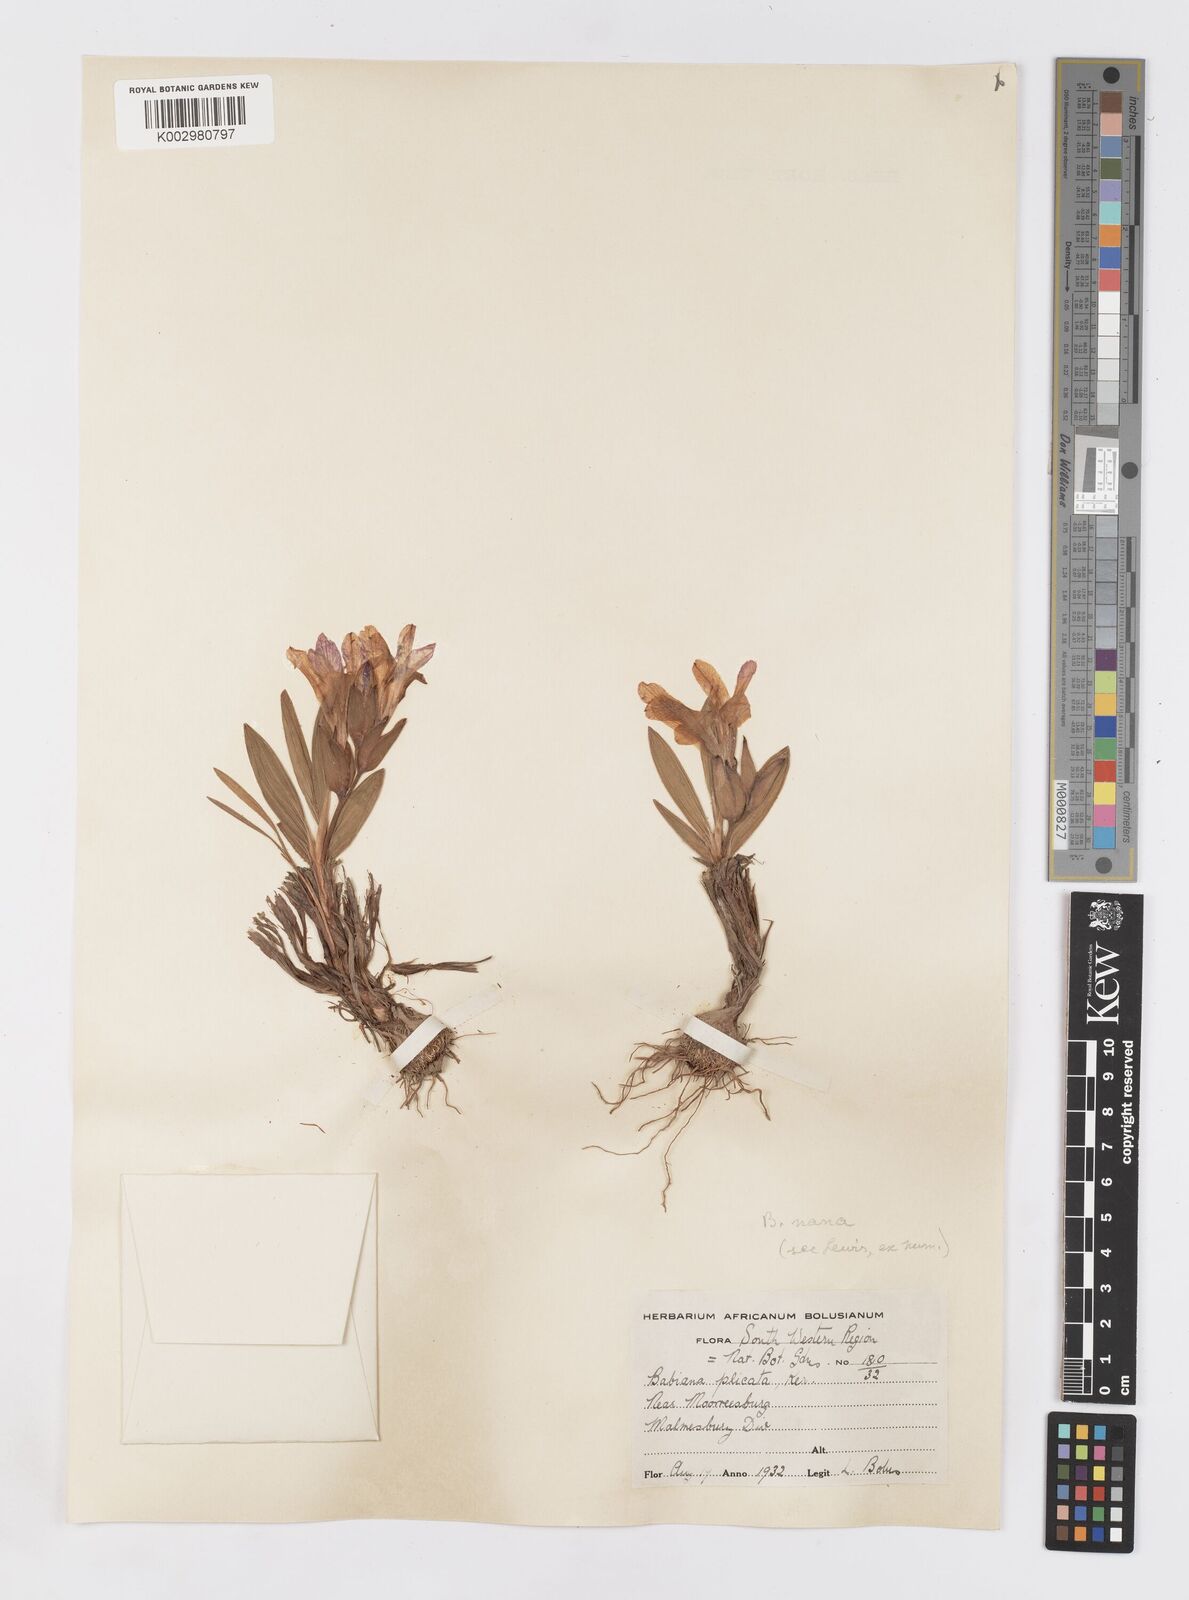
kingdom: Plantae
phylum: Tracheophyta
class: Liliopsida
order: Asparagales
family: Iridaceae
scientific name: Iridaceae
